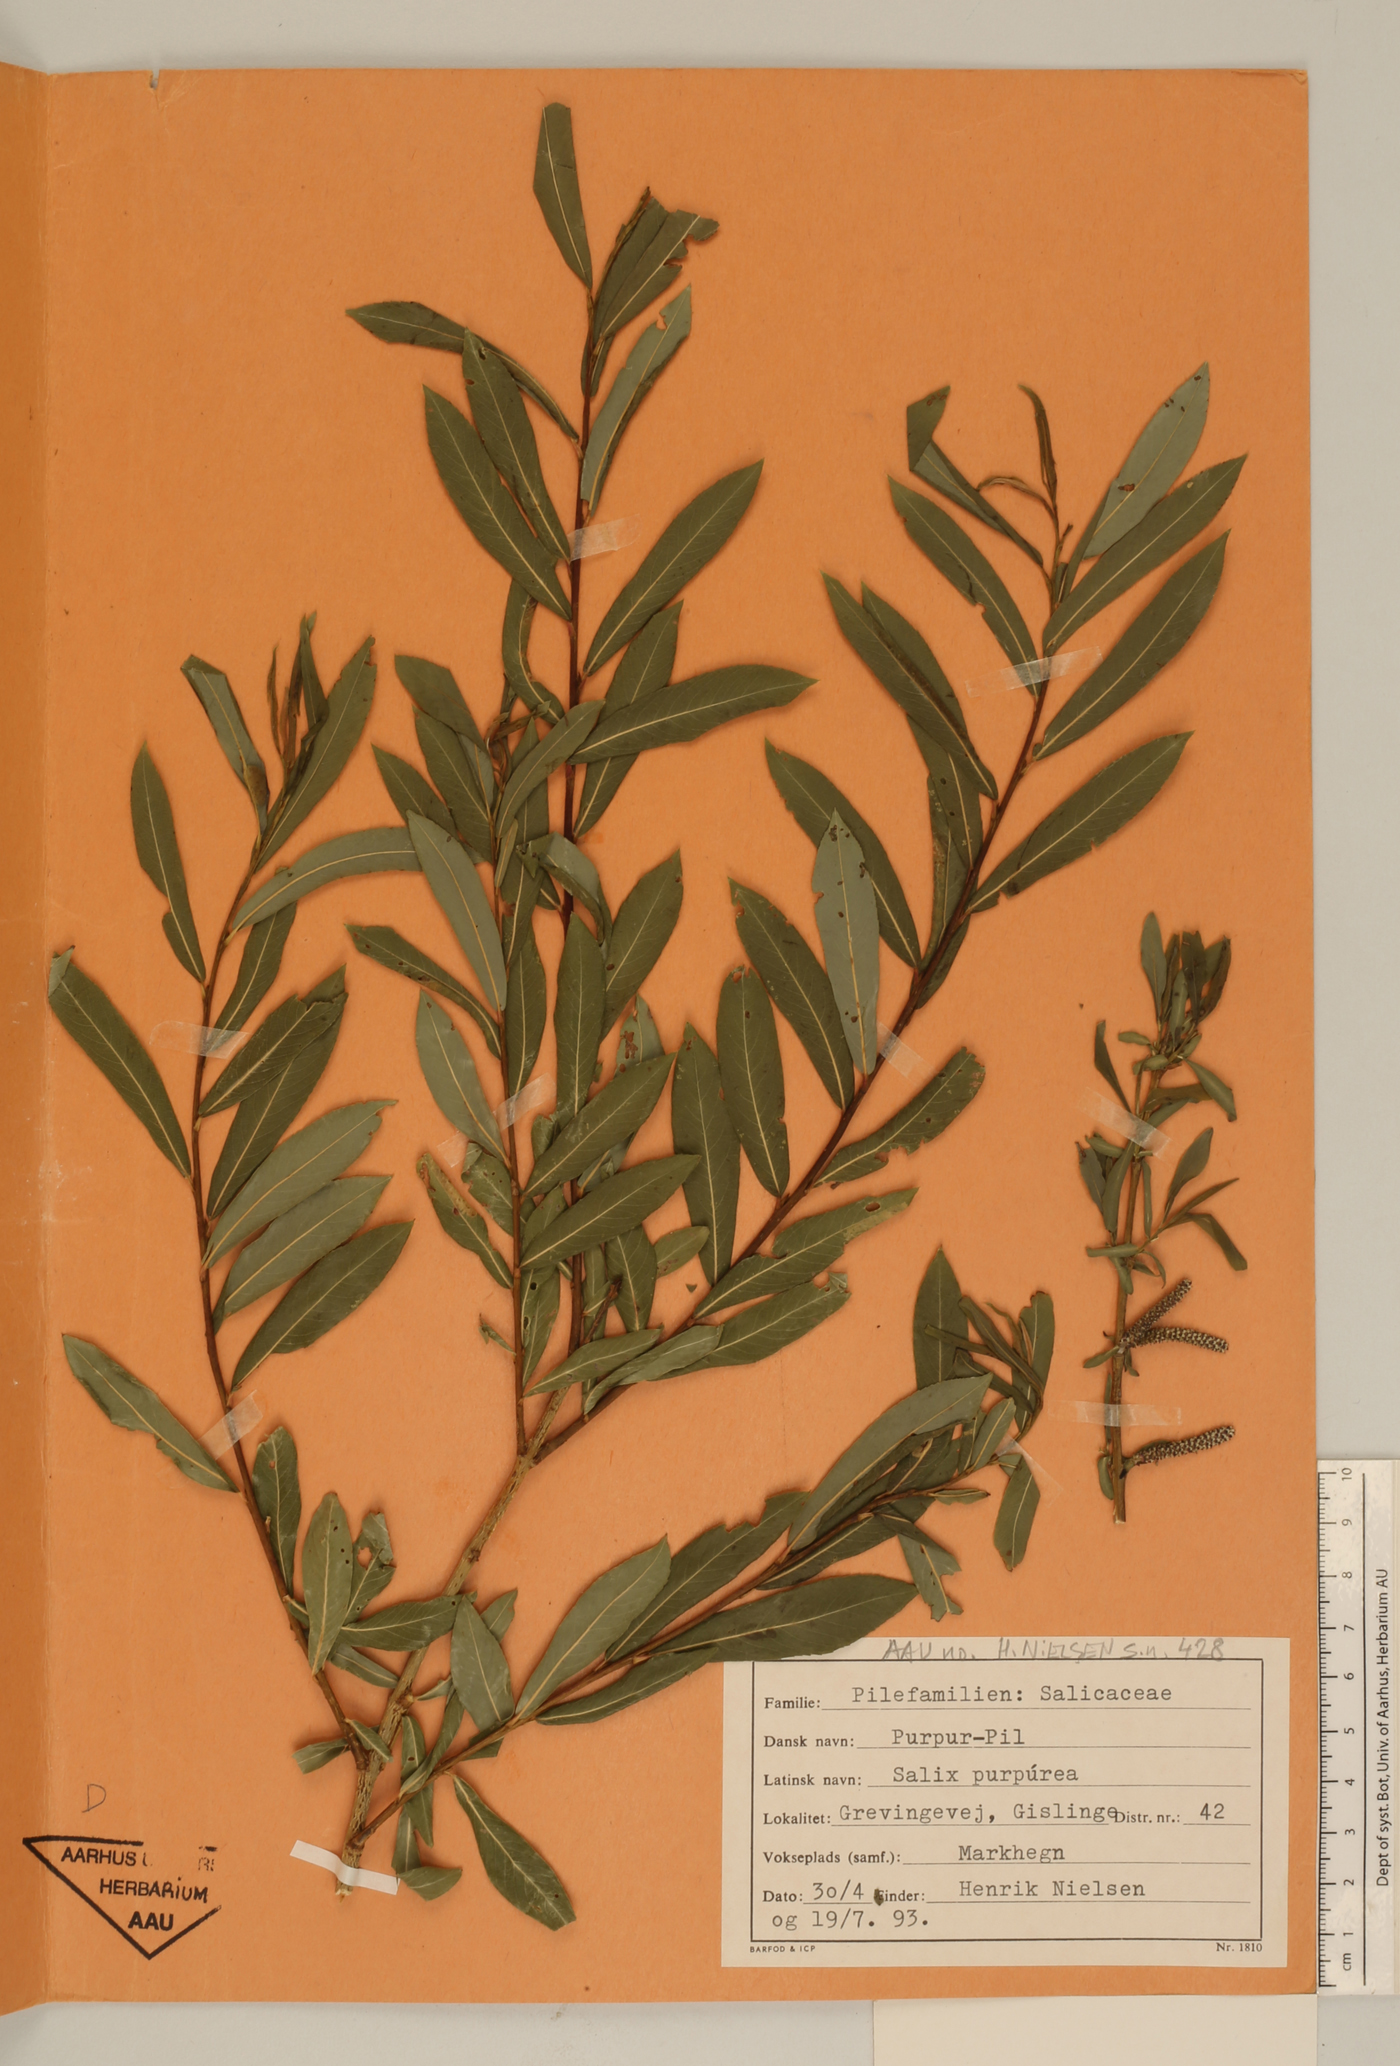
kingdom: Plantae
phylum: Tracheophyta
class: Magnoliopsida
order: Malpighiales
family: Salicaceae
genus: Salix
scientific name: Salix purpurea
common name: Purple willow
